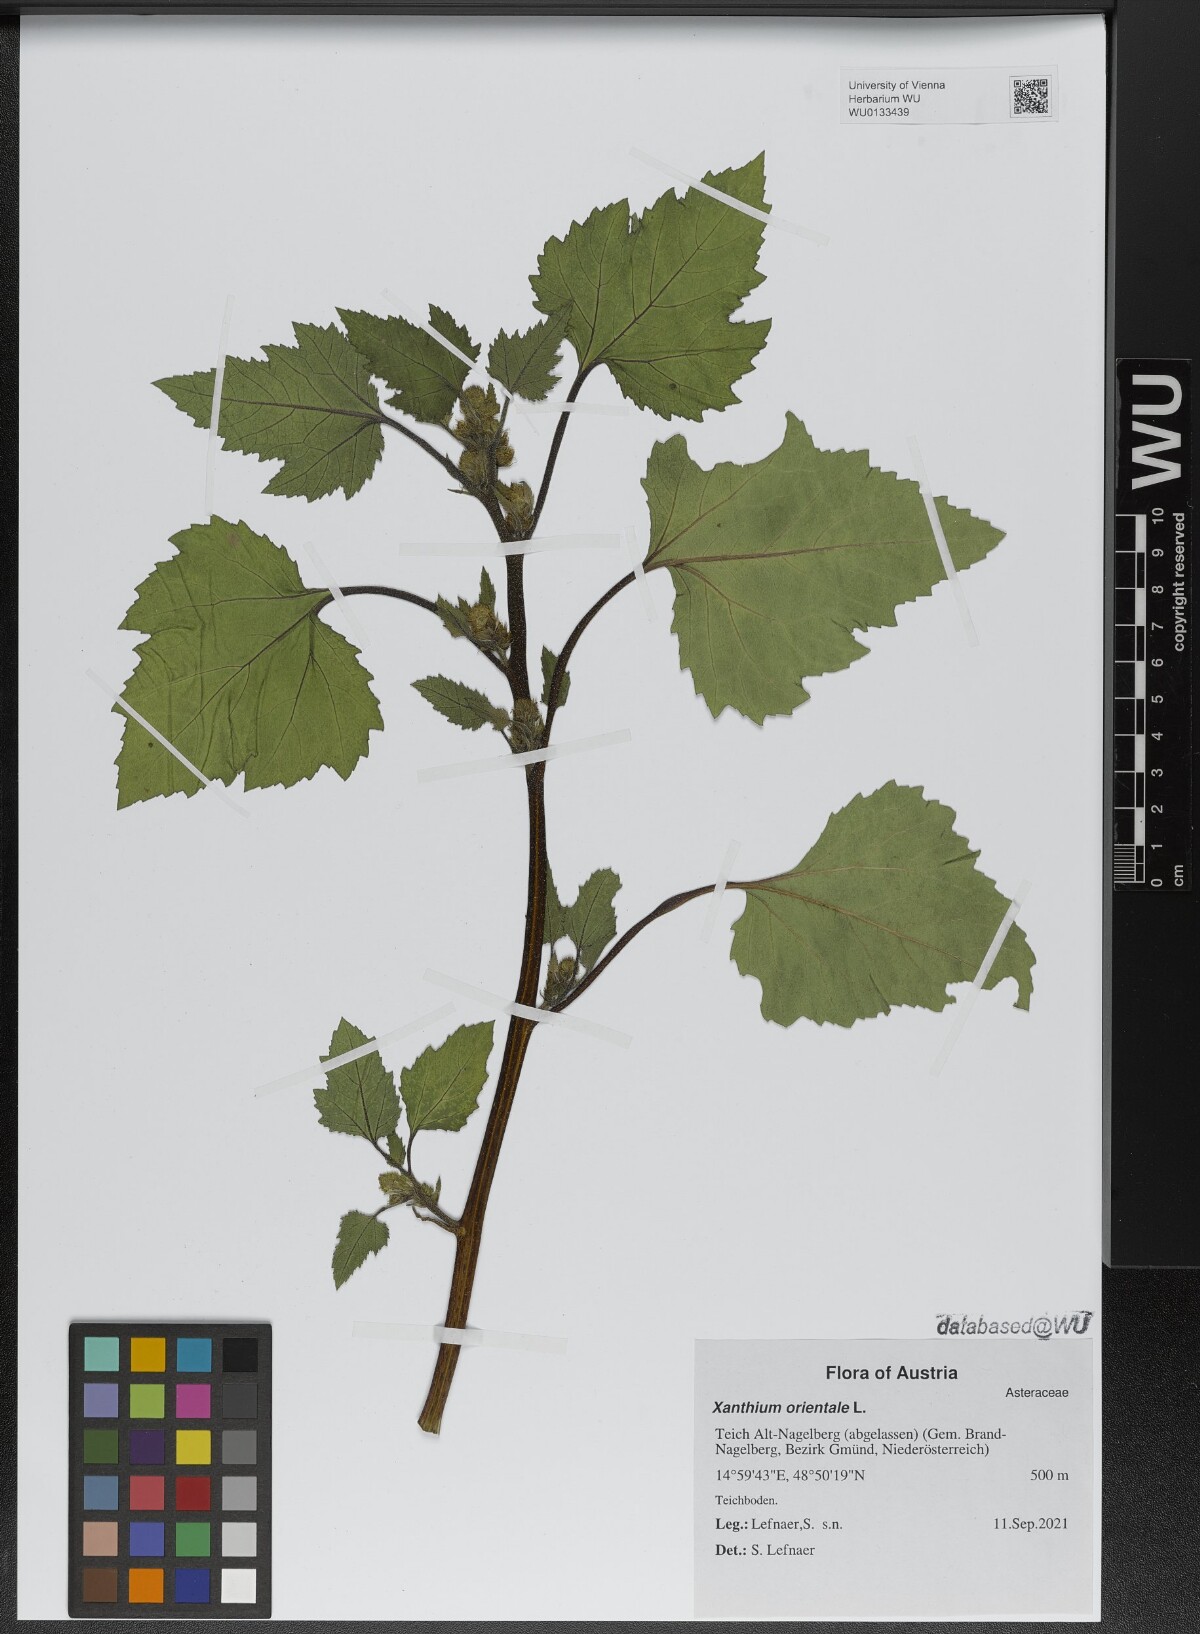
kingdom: Plantae
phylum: Tracheophyta
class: Magnoliopsida
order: Asterales
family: Asteraceae
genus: Xanthium
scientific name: Xanthium orientale
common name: Californian burr
